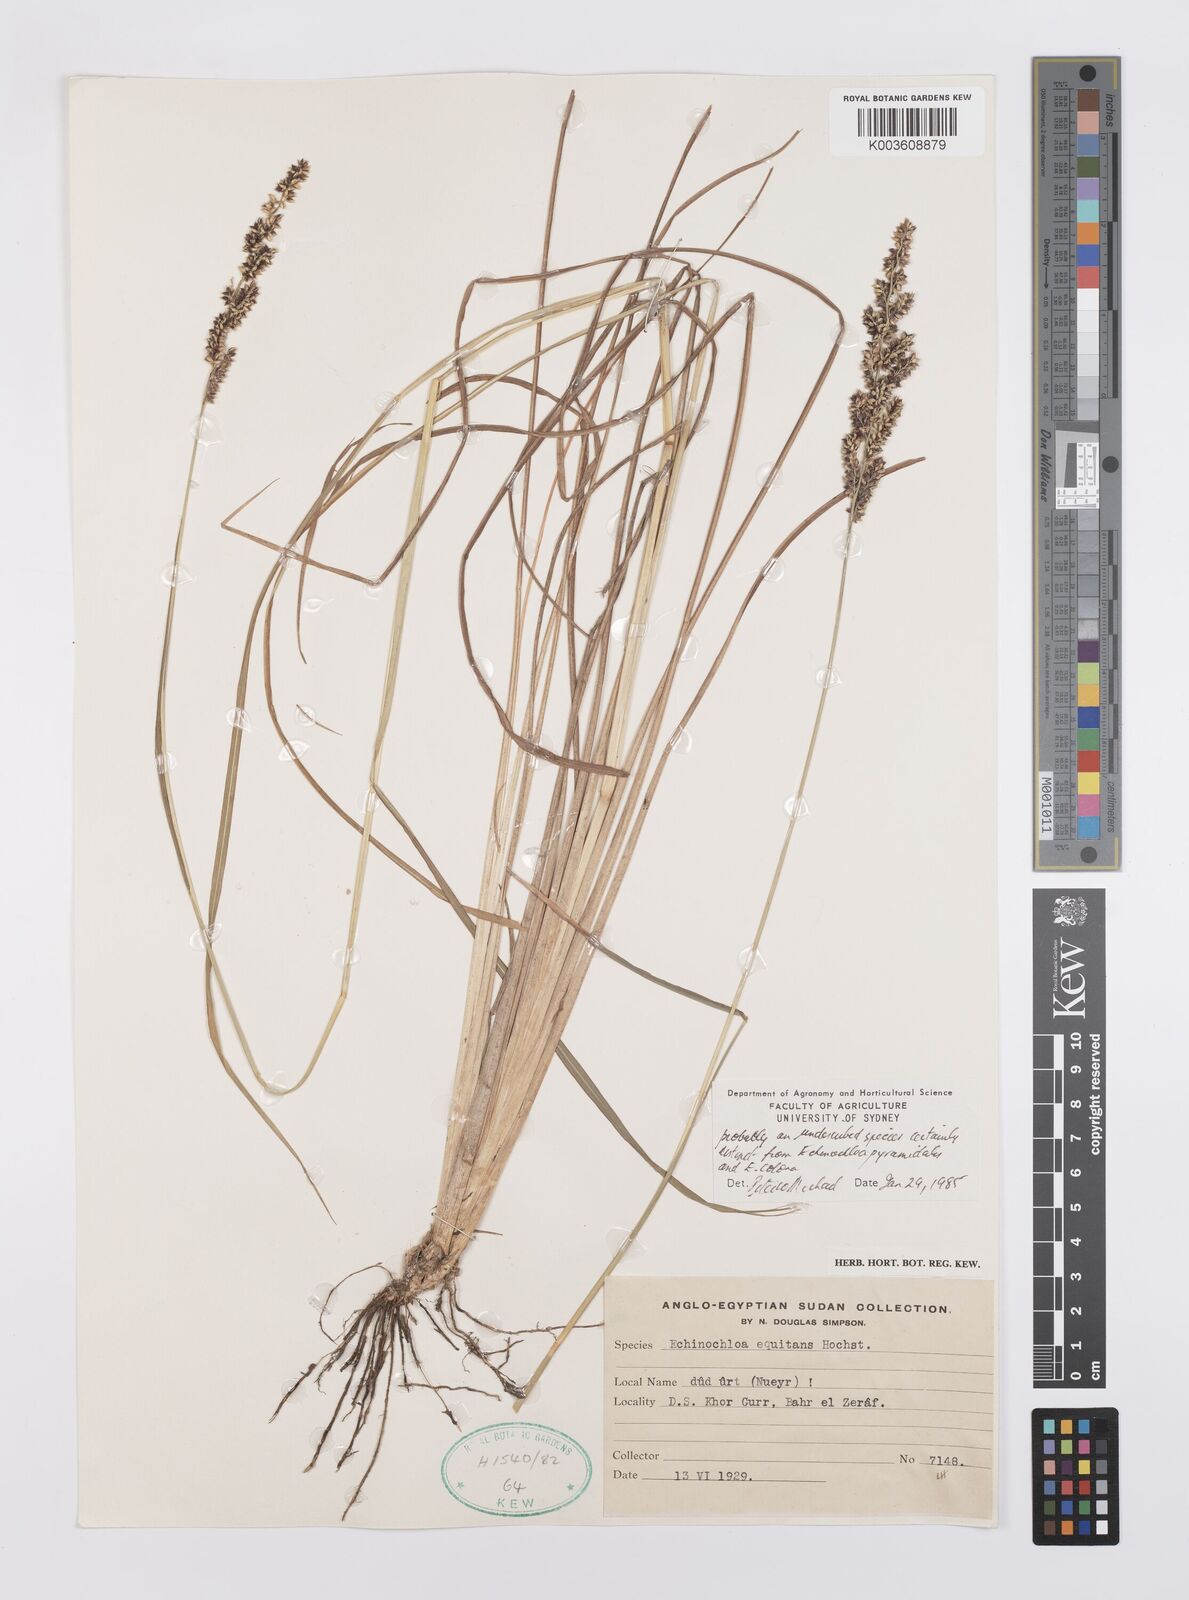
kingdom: Plantae
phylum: Tracheophyta
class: Liliopsida
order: Poales
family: Poaceae
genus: Echinochloa
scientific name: Echinochloa colonum
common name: Jungle rice
